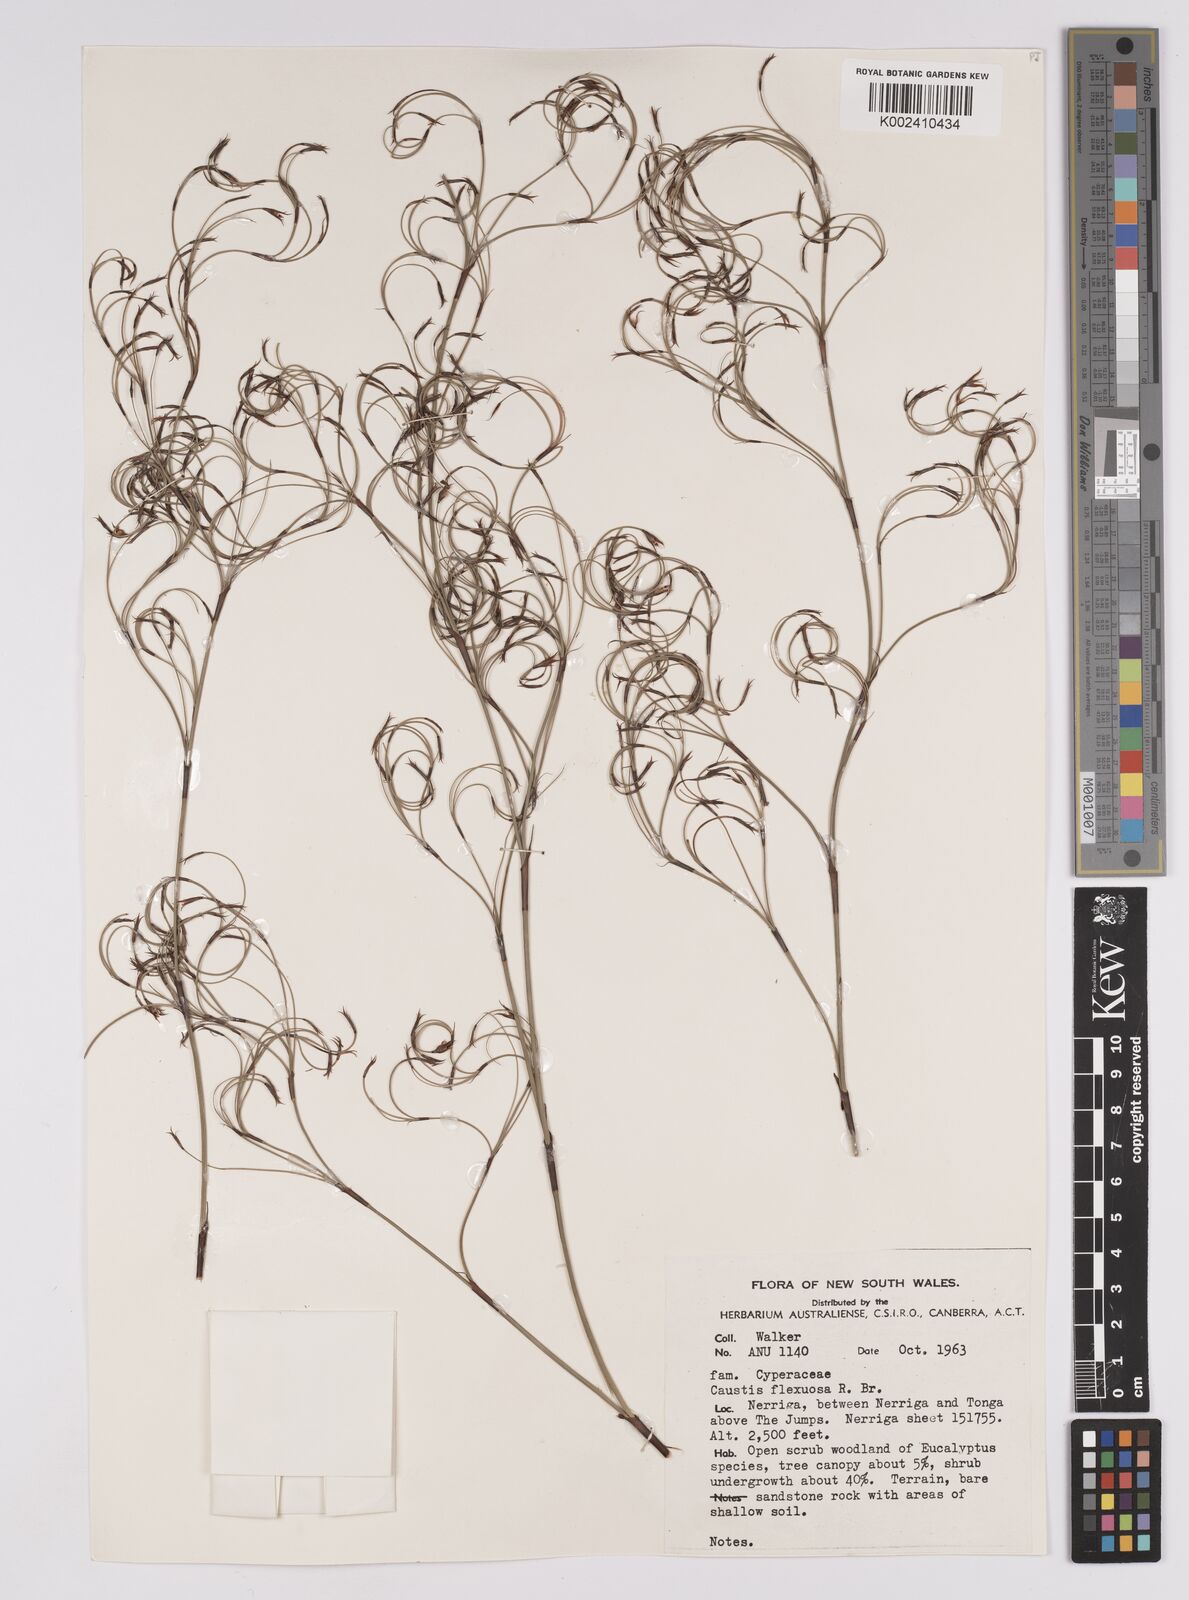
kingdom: Plantae
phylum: Tracheophyta
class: Liliopsida
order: Poales
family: Cyperaceae
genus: Caustis
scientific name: Caustis flexuosa
